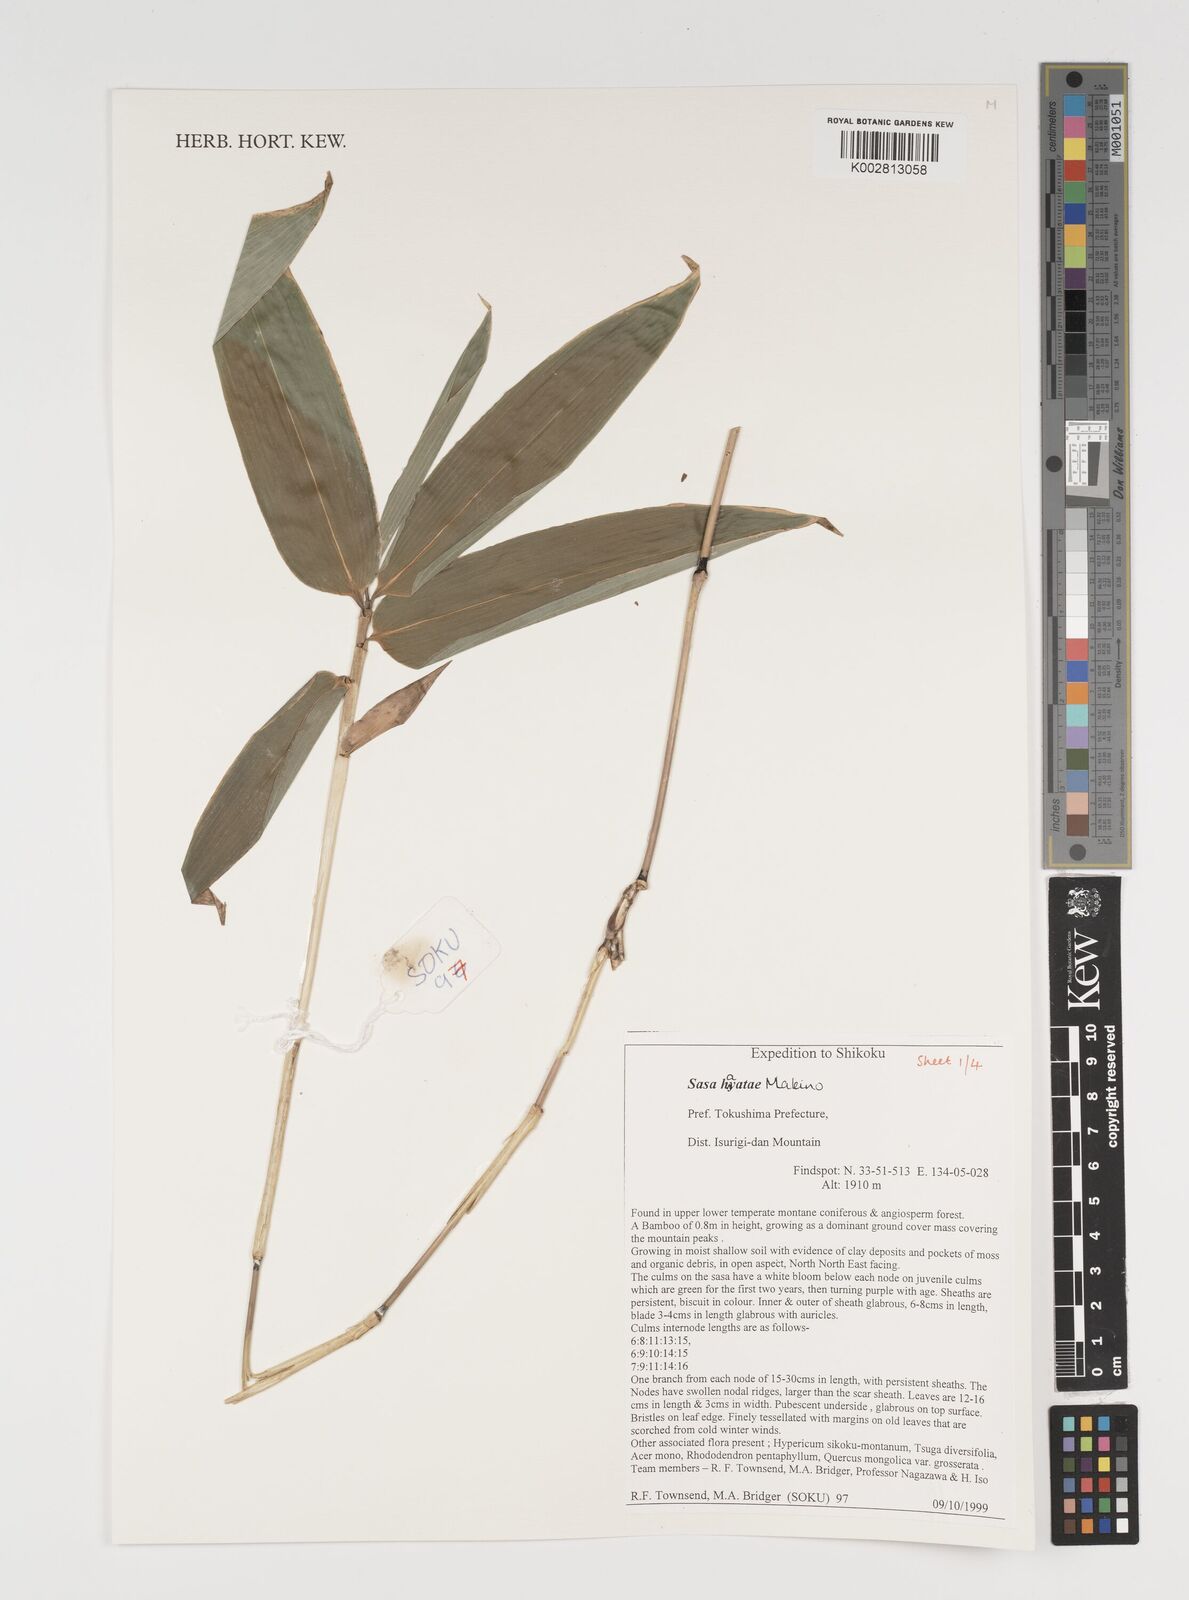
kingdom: Plantae
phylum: Tracheophyta
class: Liliopsida
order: Poales
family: Poaceae
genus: Sasa
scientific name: Sasa hayatae
